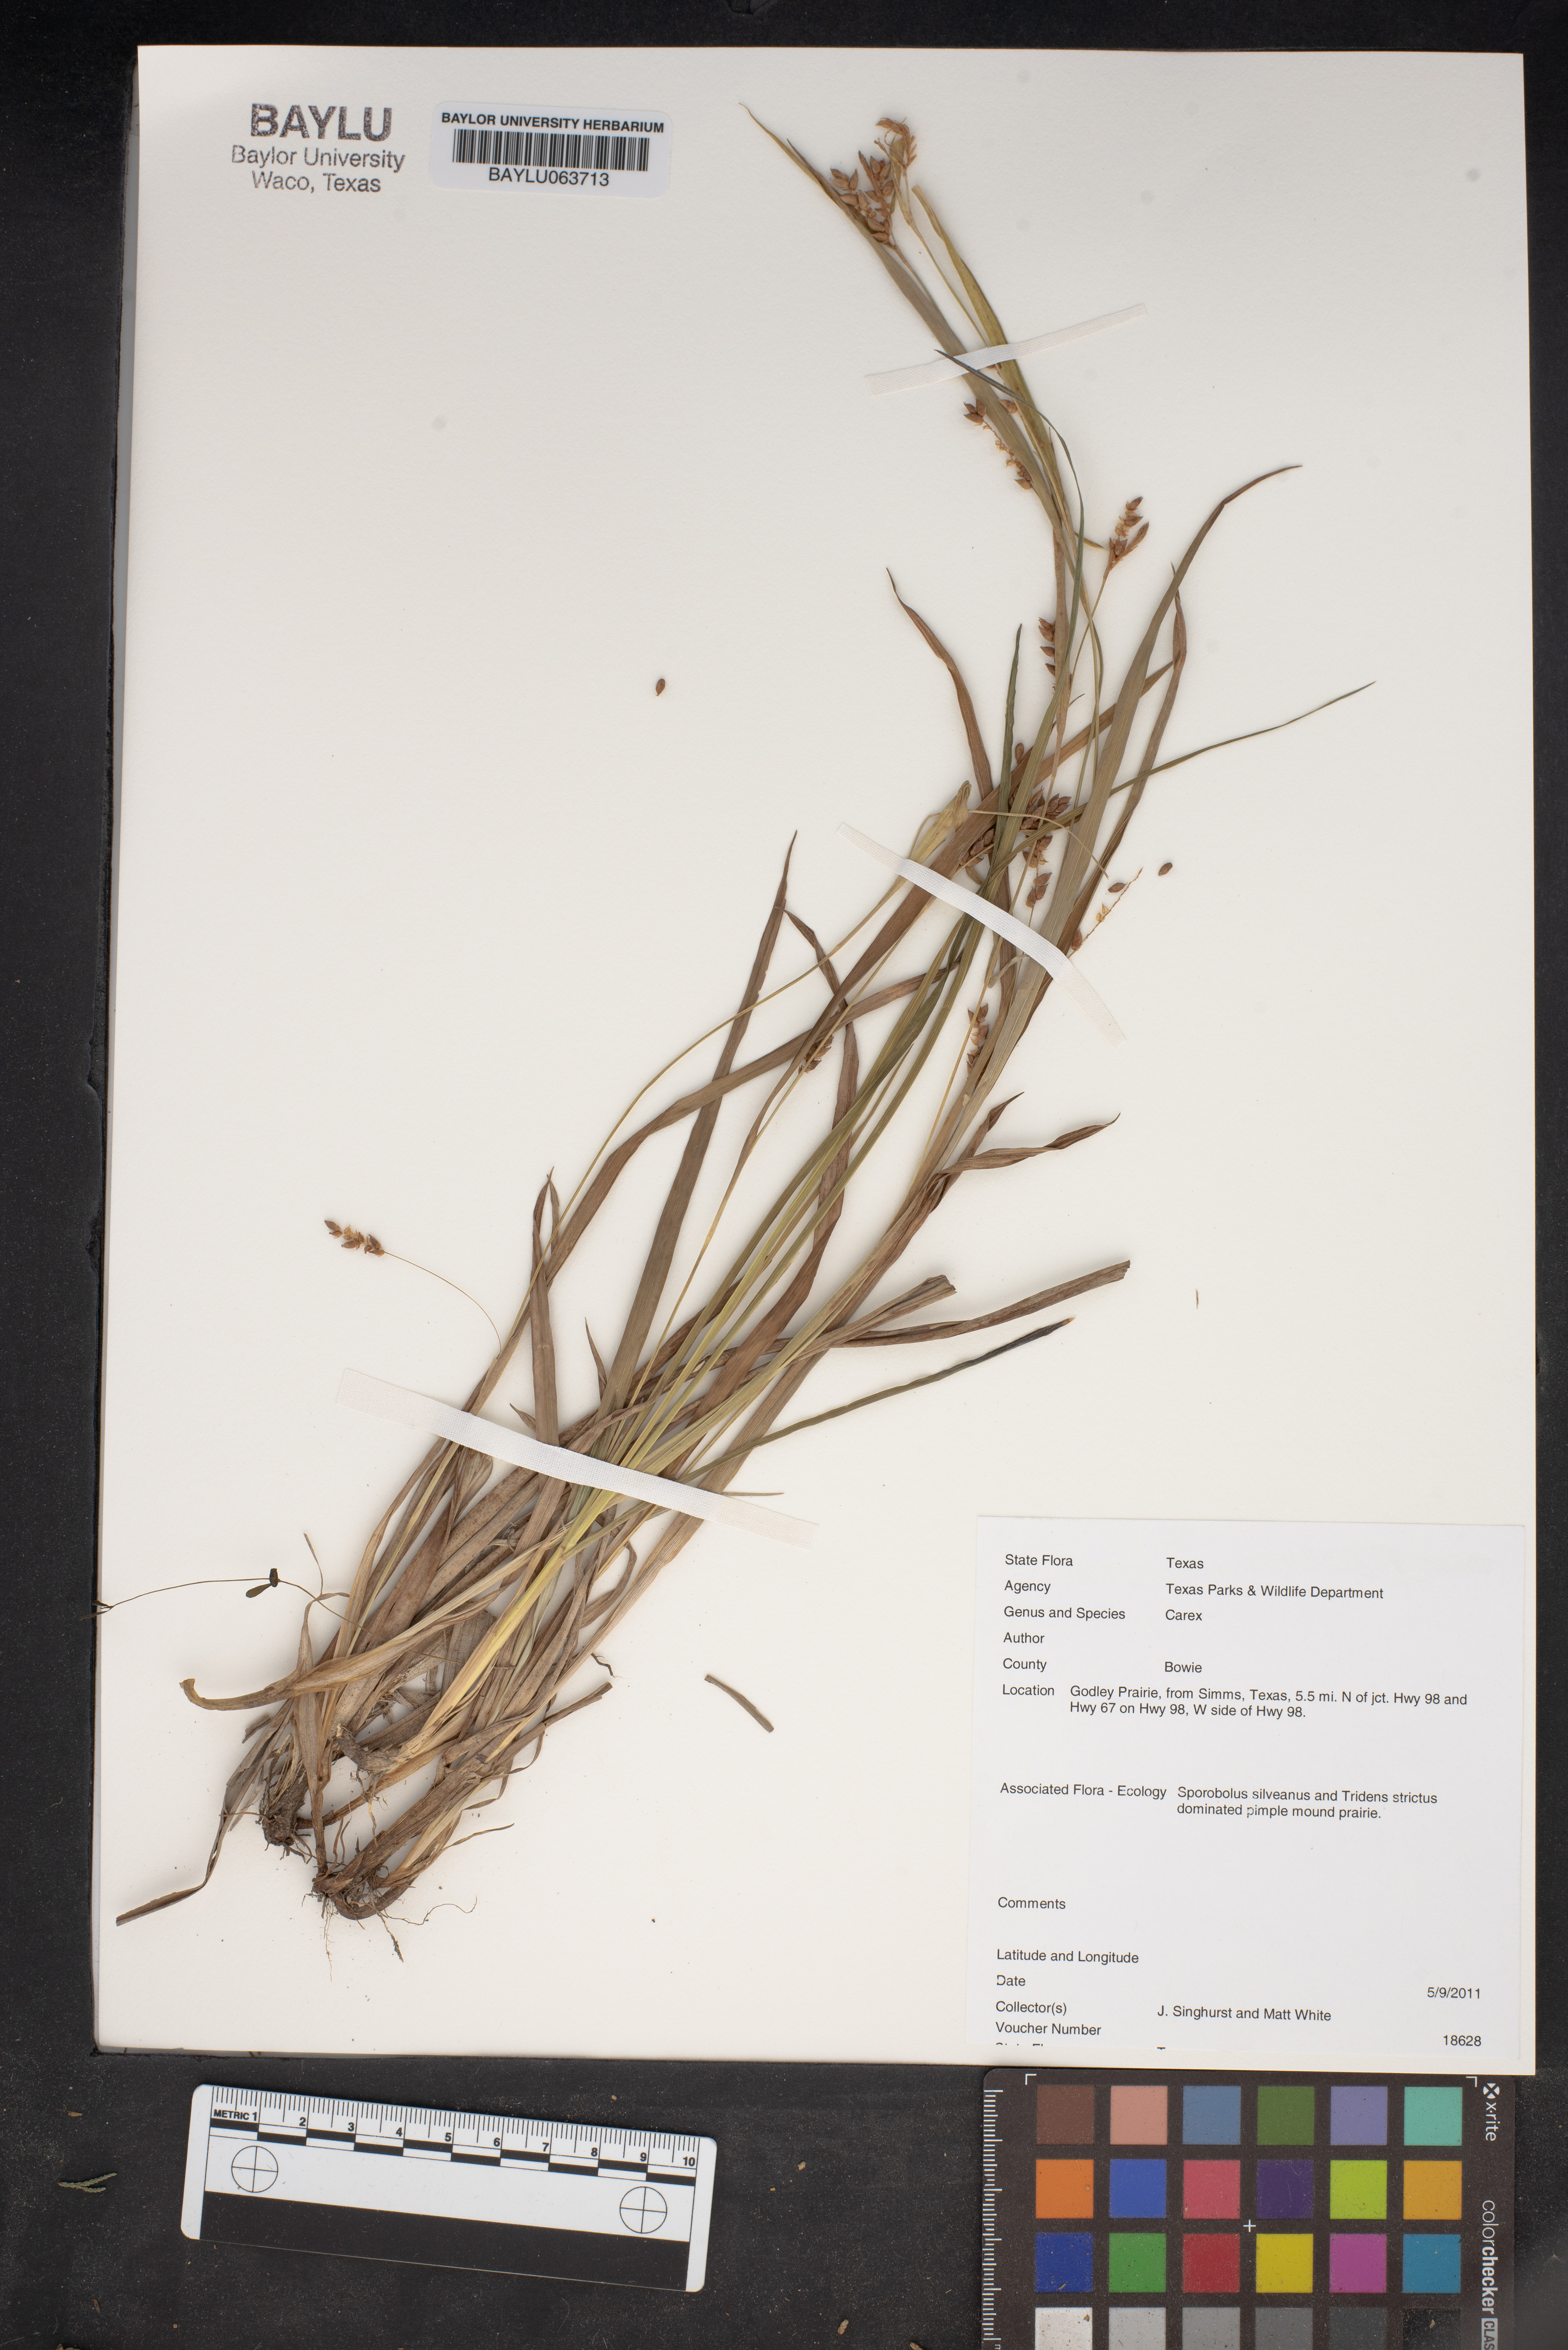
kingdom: Plantae
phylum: Tracheophyta
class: Liliopsida
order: Poales
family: Cyperaceae
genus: Carex
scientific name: Carex
